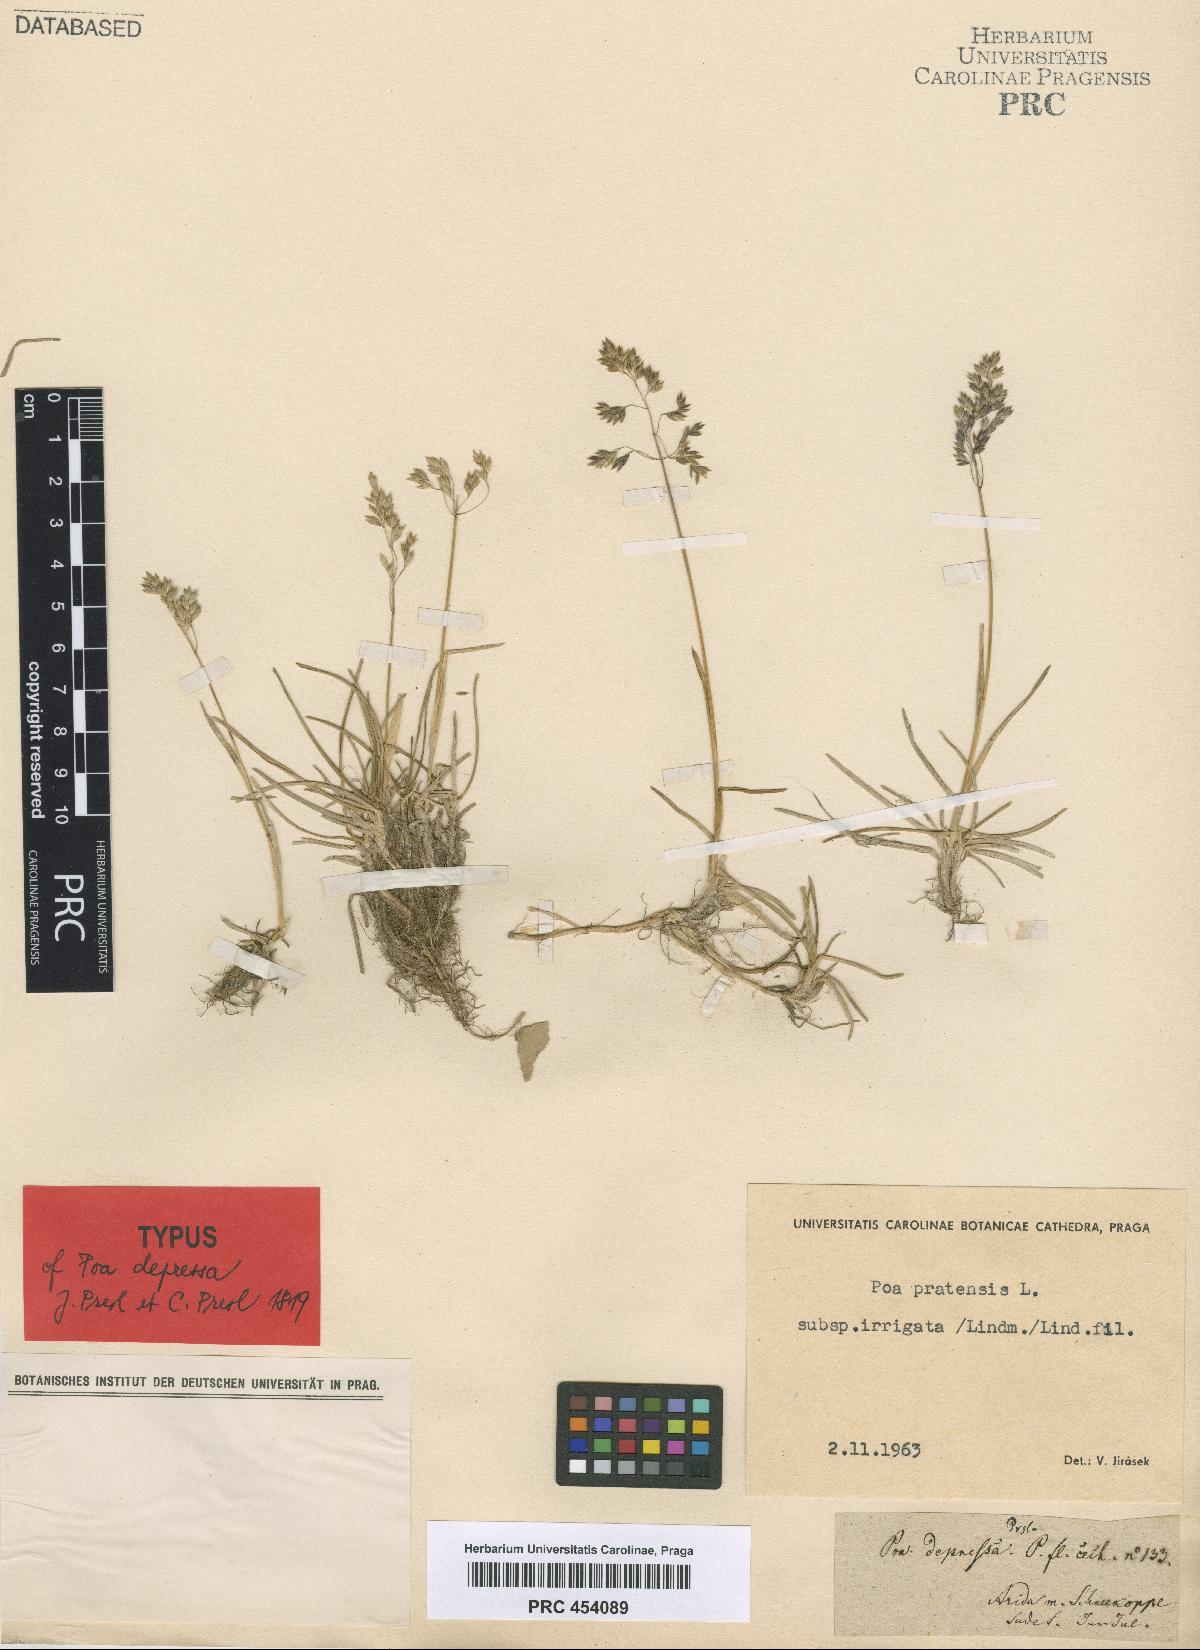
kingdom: Plantae
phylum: Tracheophyta
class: Liliopsida
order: Poales
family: Poaceae
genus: Poa
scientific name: Poa humilis
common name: Spreading meadow-grass
